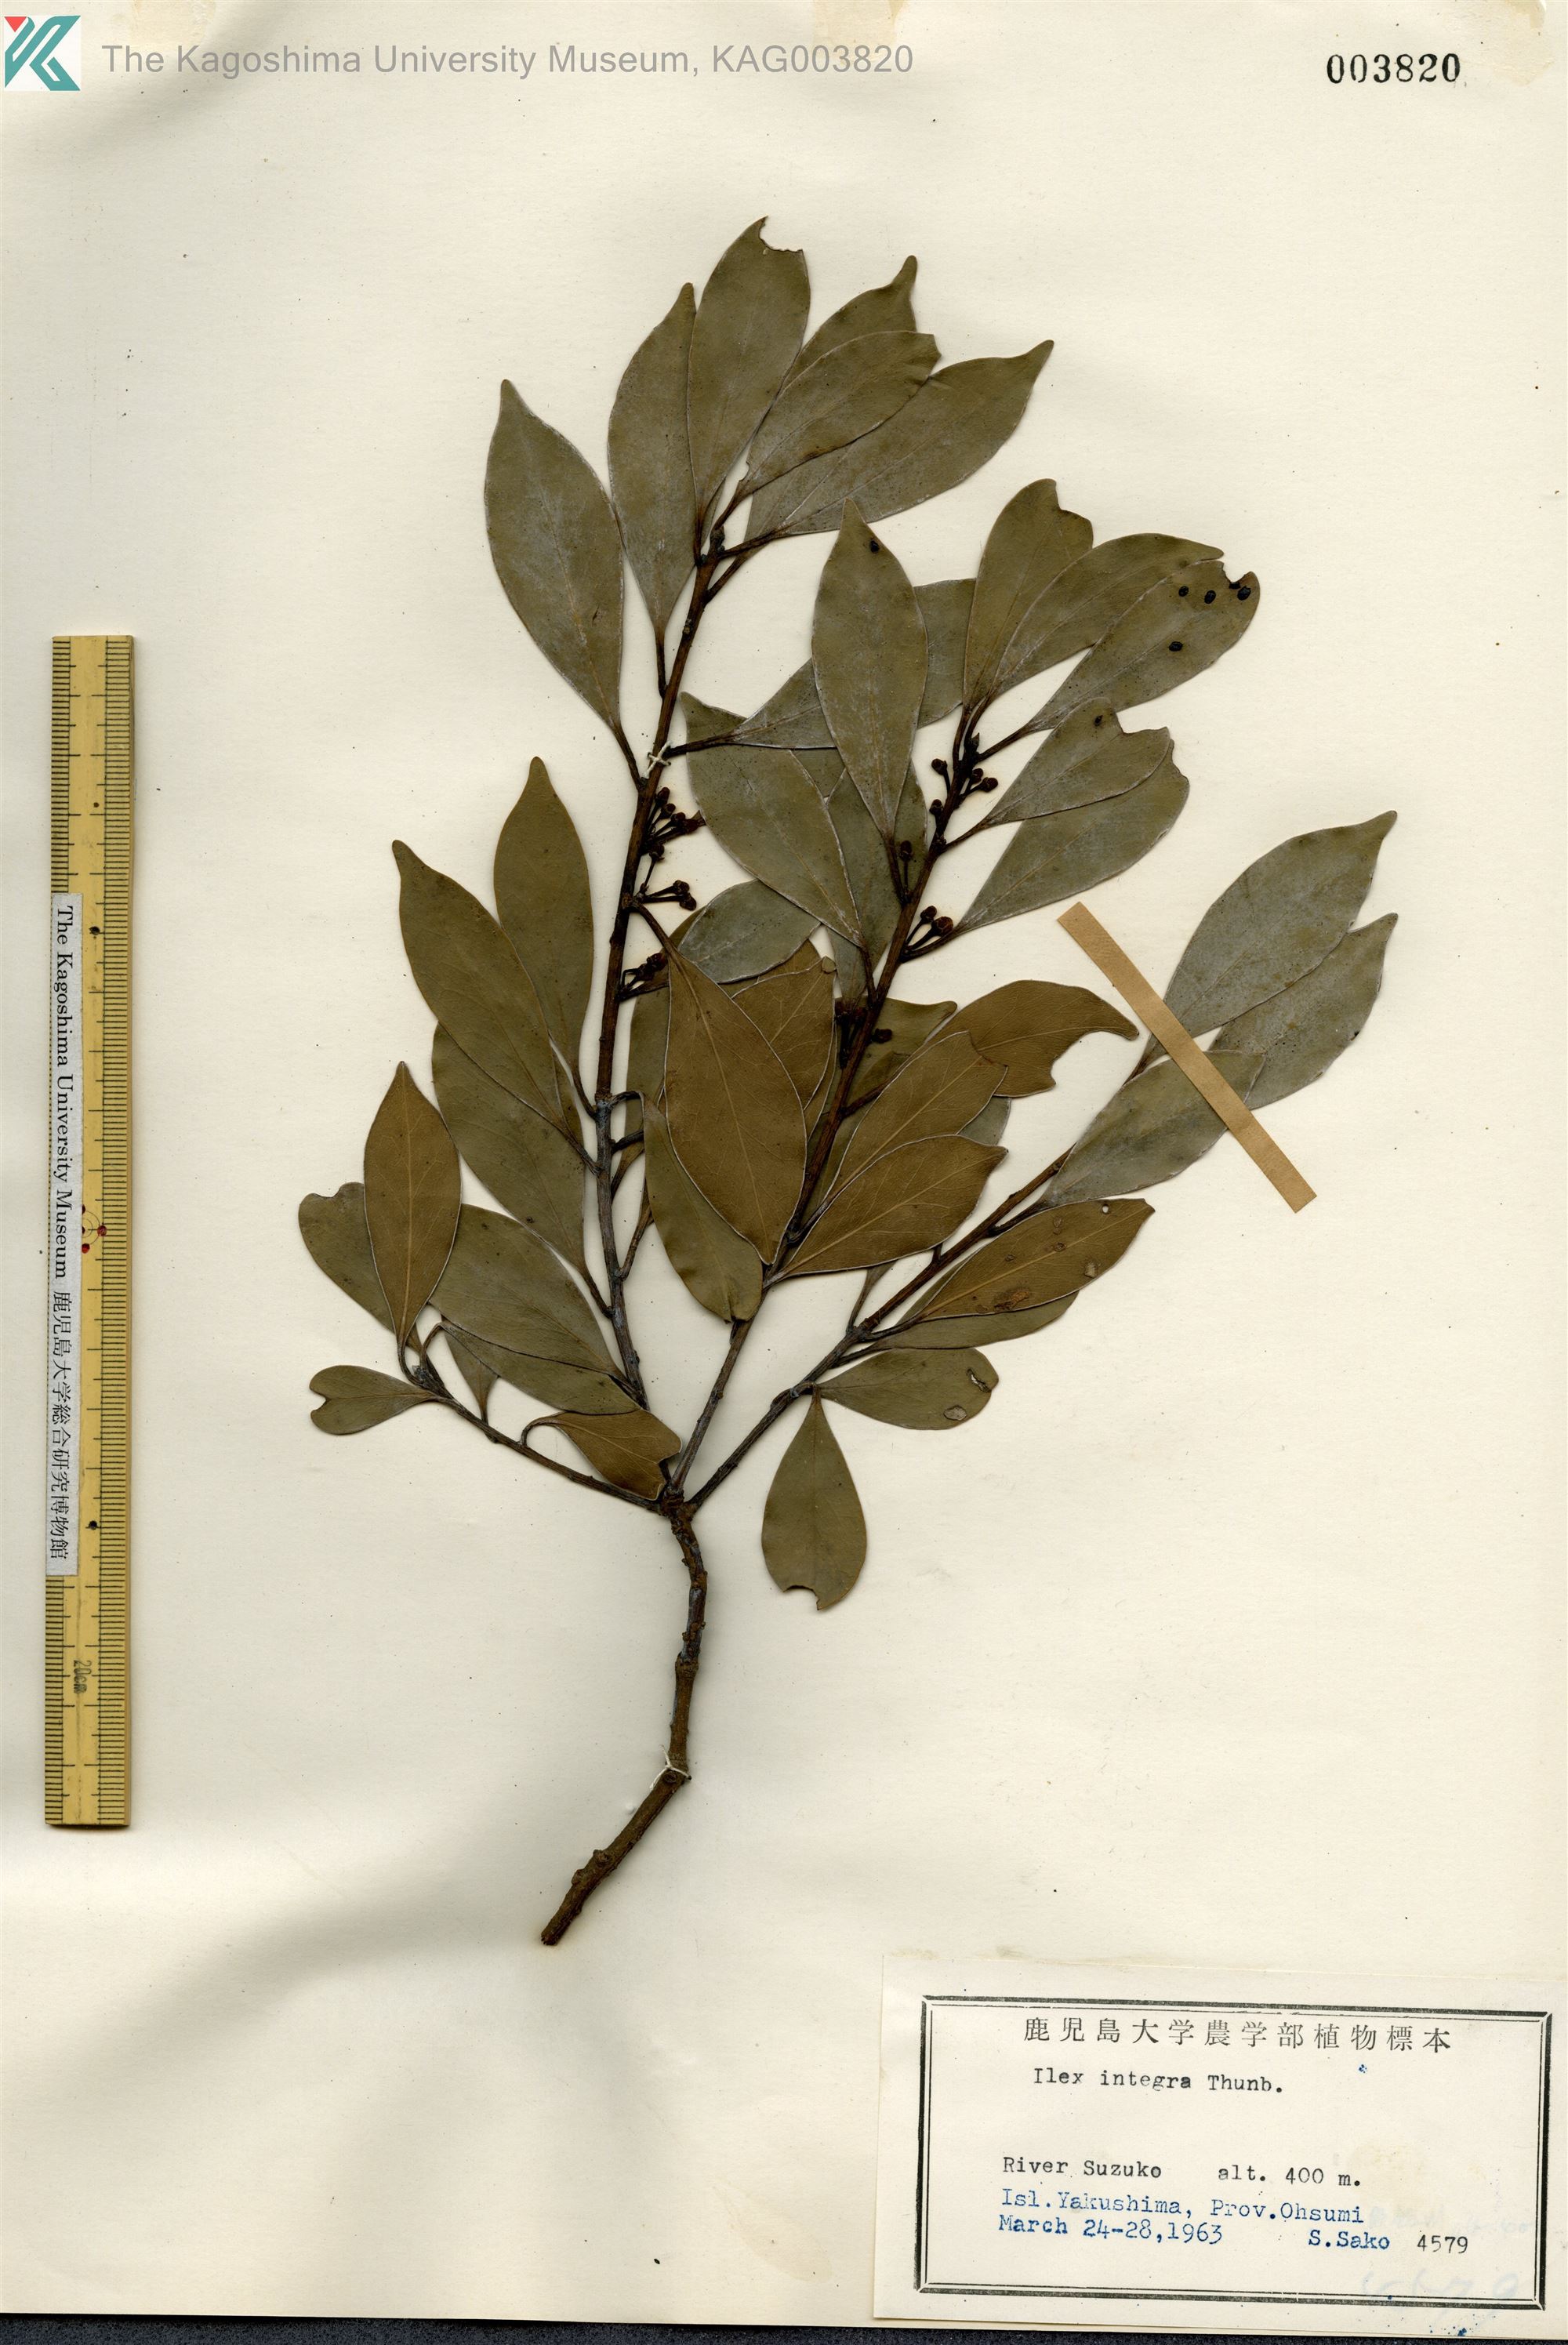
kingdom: Plantae
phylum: Tracheophyta
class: Magnoliopsida
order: Aquifoliales
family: Aquifoliaceae
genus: Ilex
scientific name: Ilex integra
